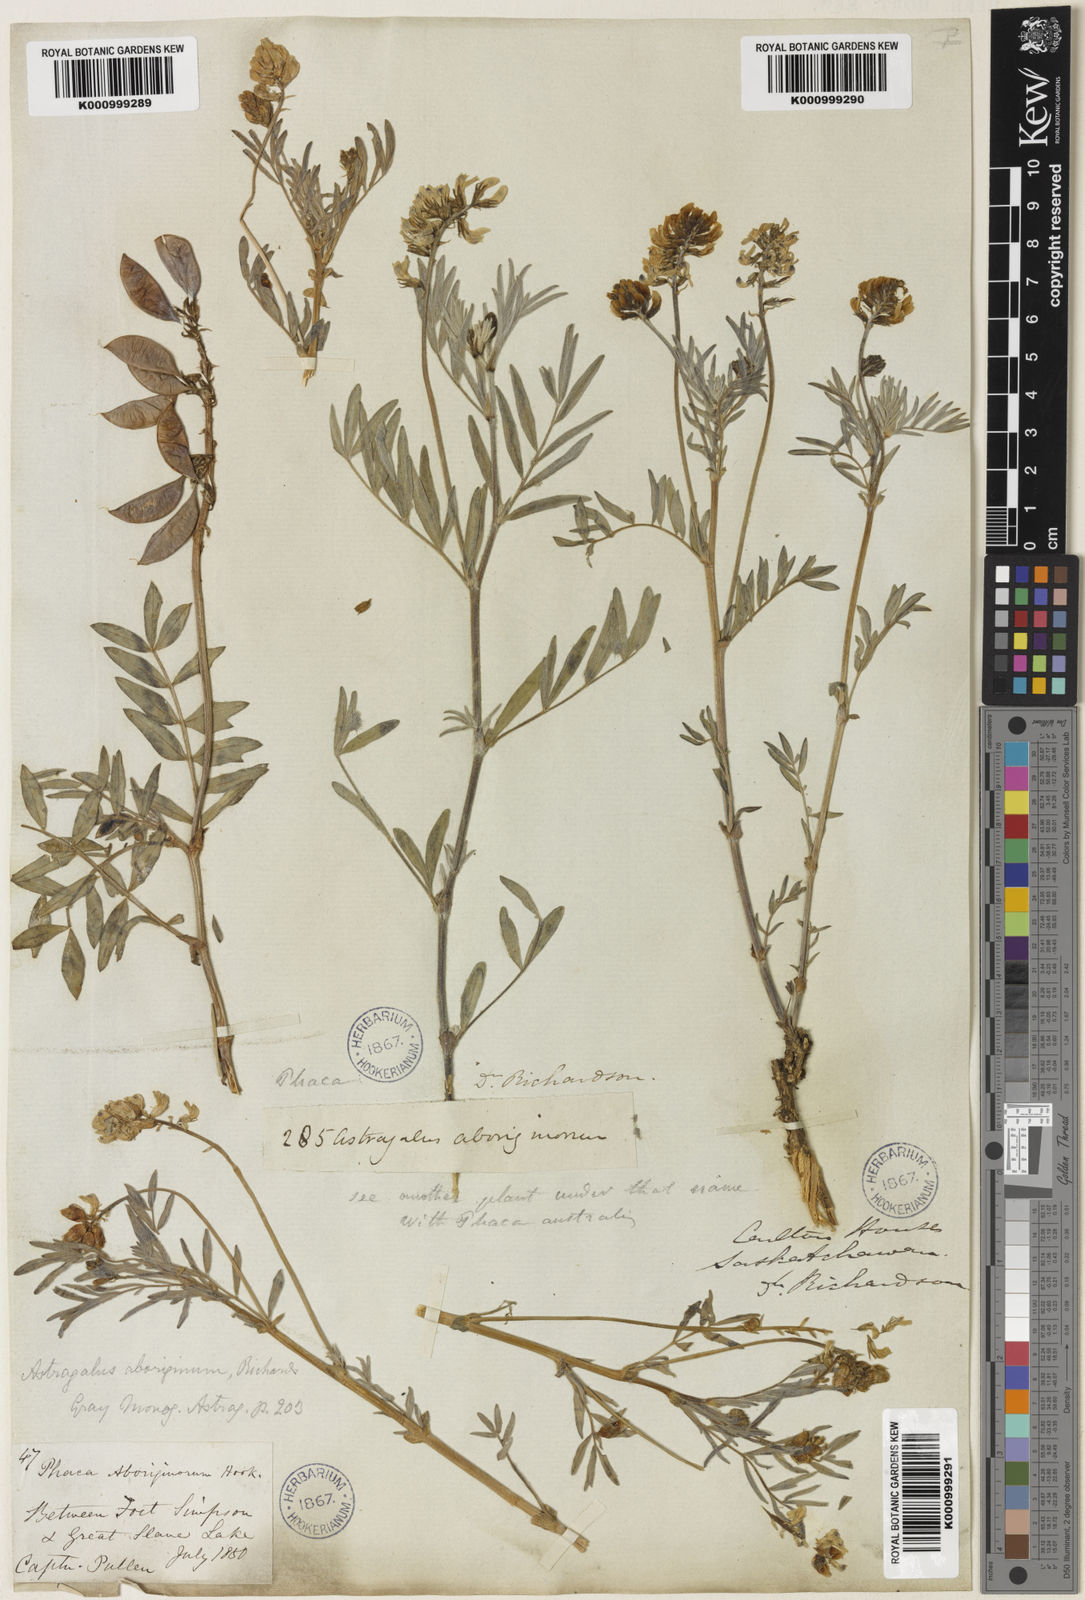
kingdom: Plantae
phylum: Tracheophyta
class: Magnoliopsida
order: Fabales
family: Fabaceae
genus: Astragalus
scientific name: Astragalus aboriginorum
